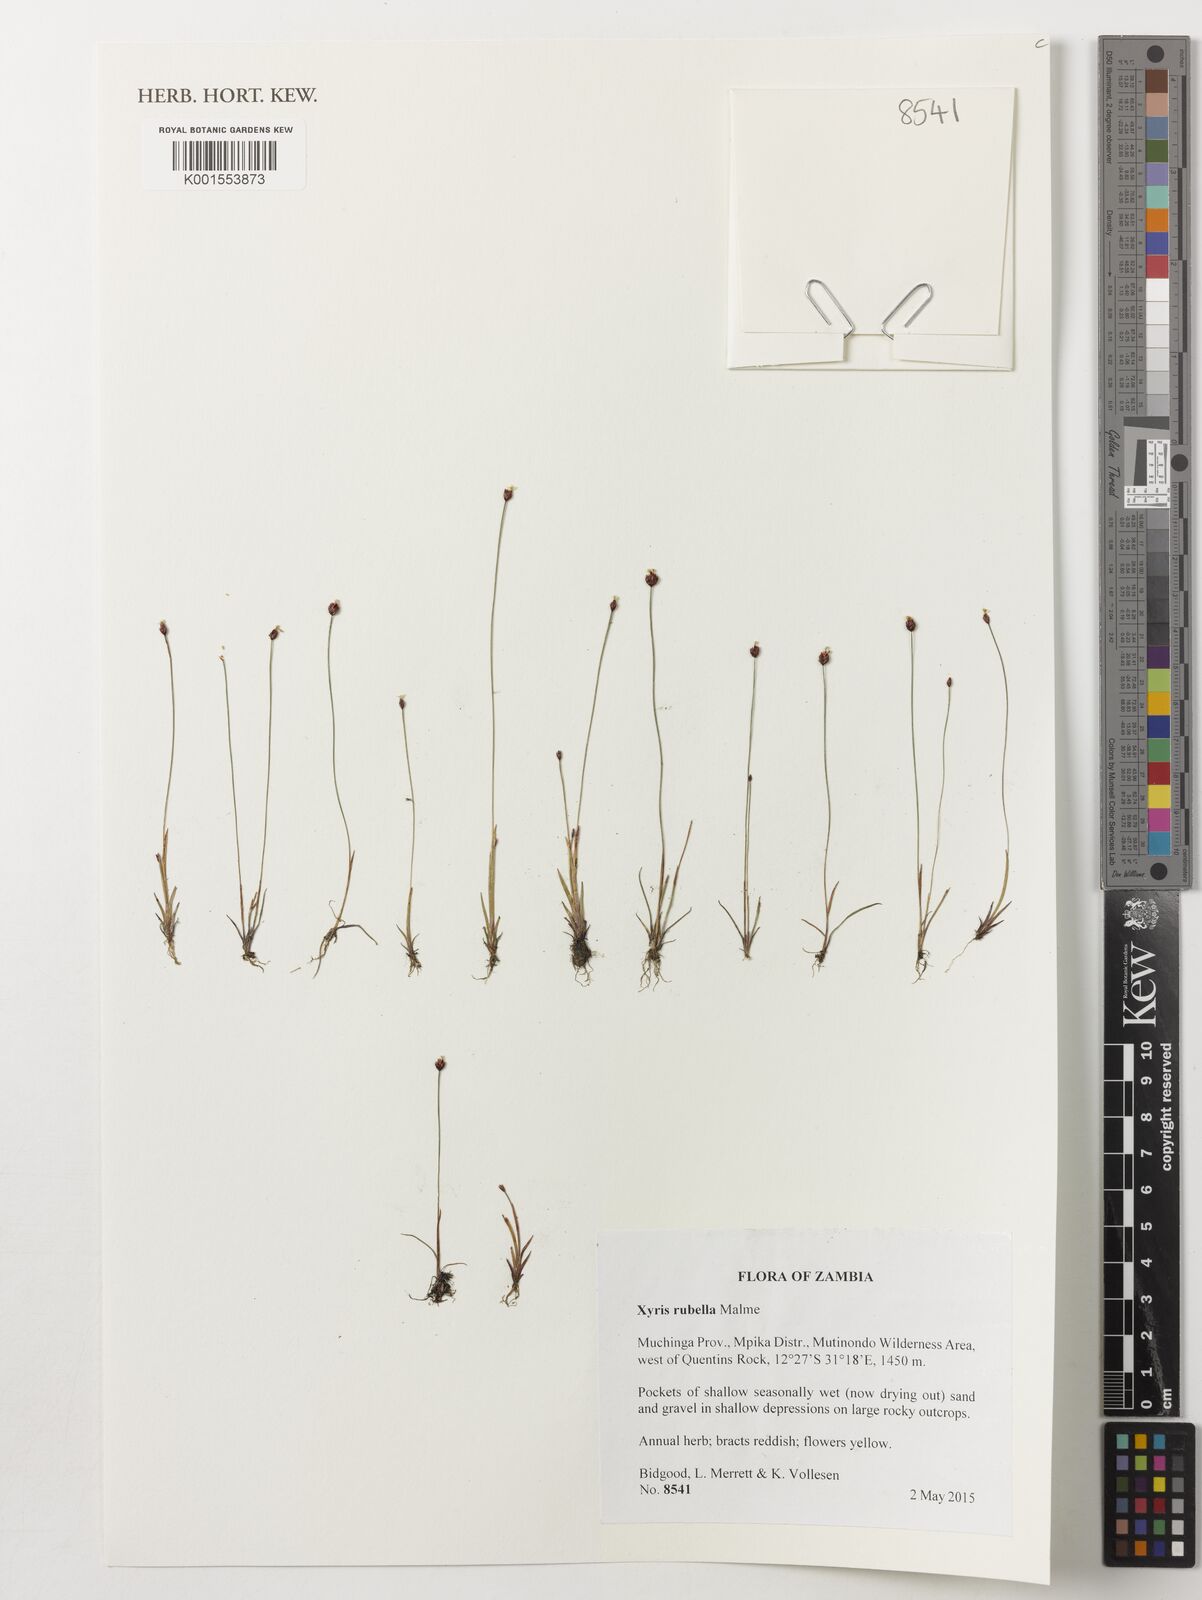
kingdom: Plantae
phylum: Tracheophyta
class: Liliopsida
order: Poales
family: Xyridaceae
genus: Xyris
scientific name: Xyris rubella
